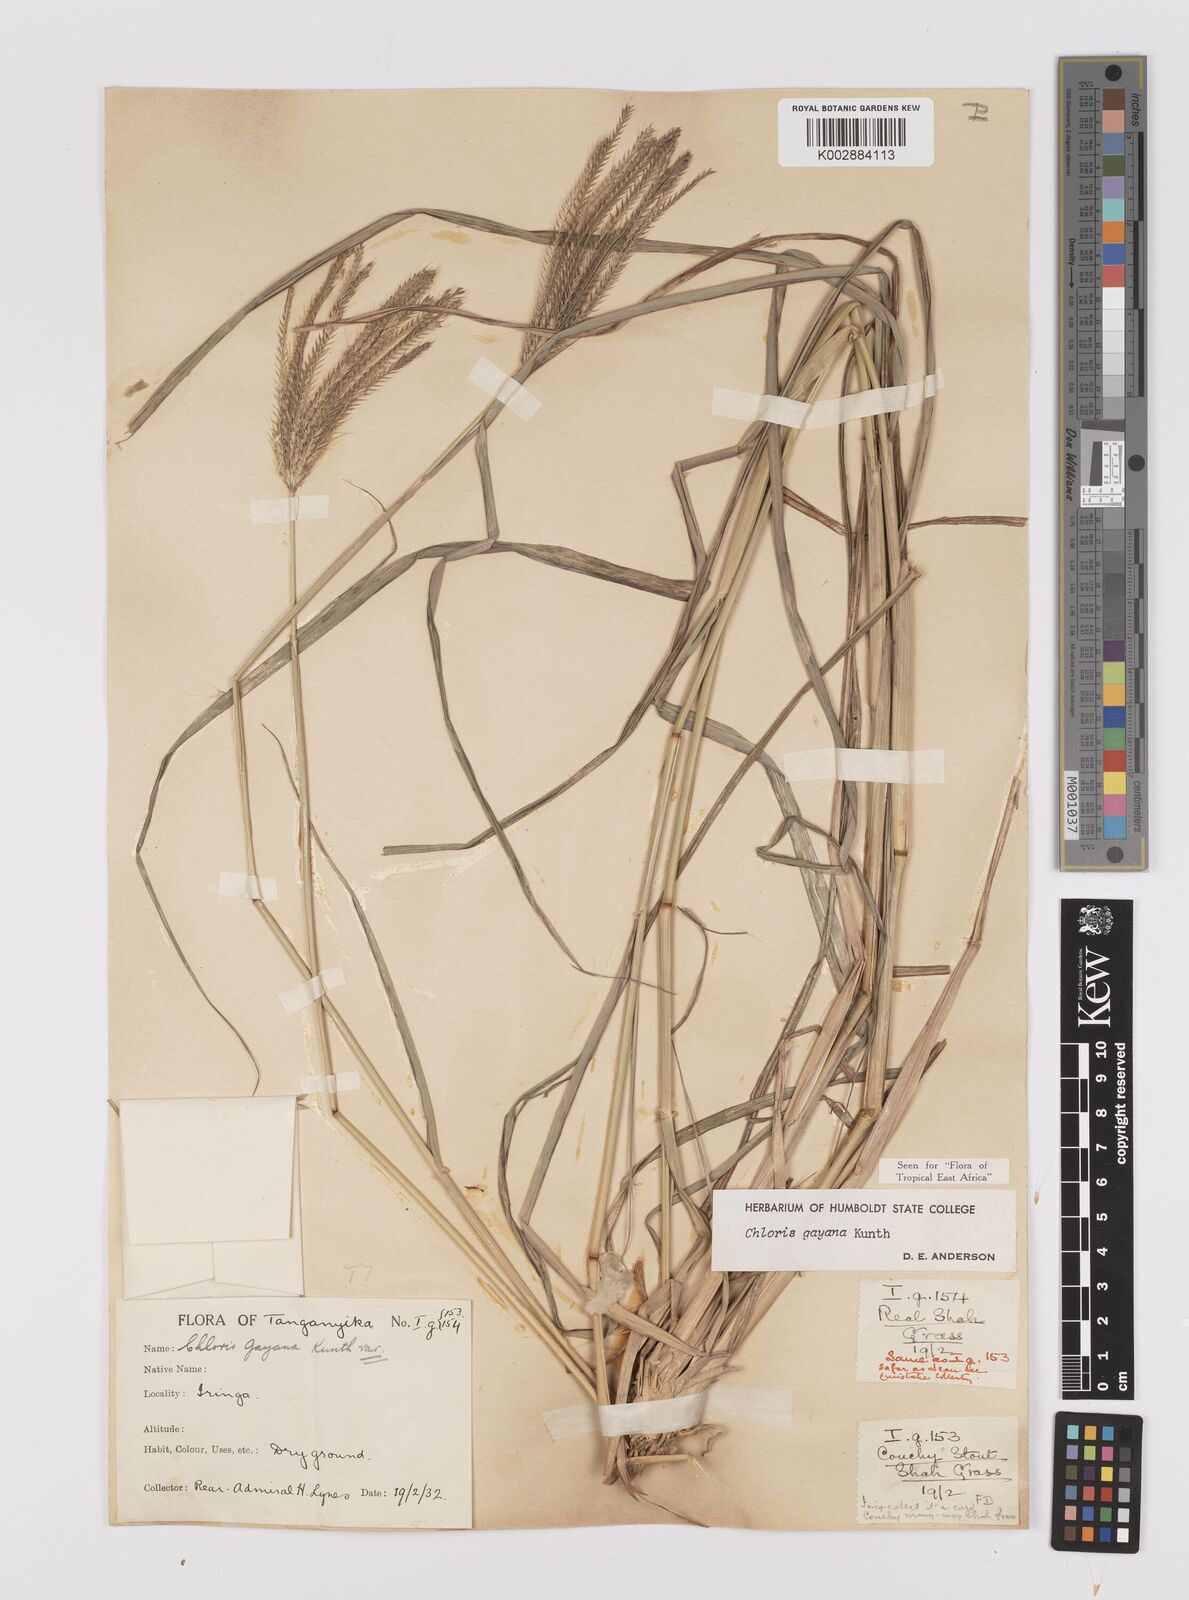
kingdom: Plantae
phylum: Tracheophyta
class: Liliopsida
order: Poales
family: Poaceae
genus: Chloris
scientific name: Chloris gayana
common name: Rhodes grass
